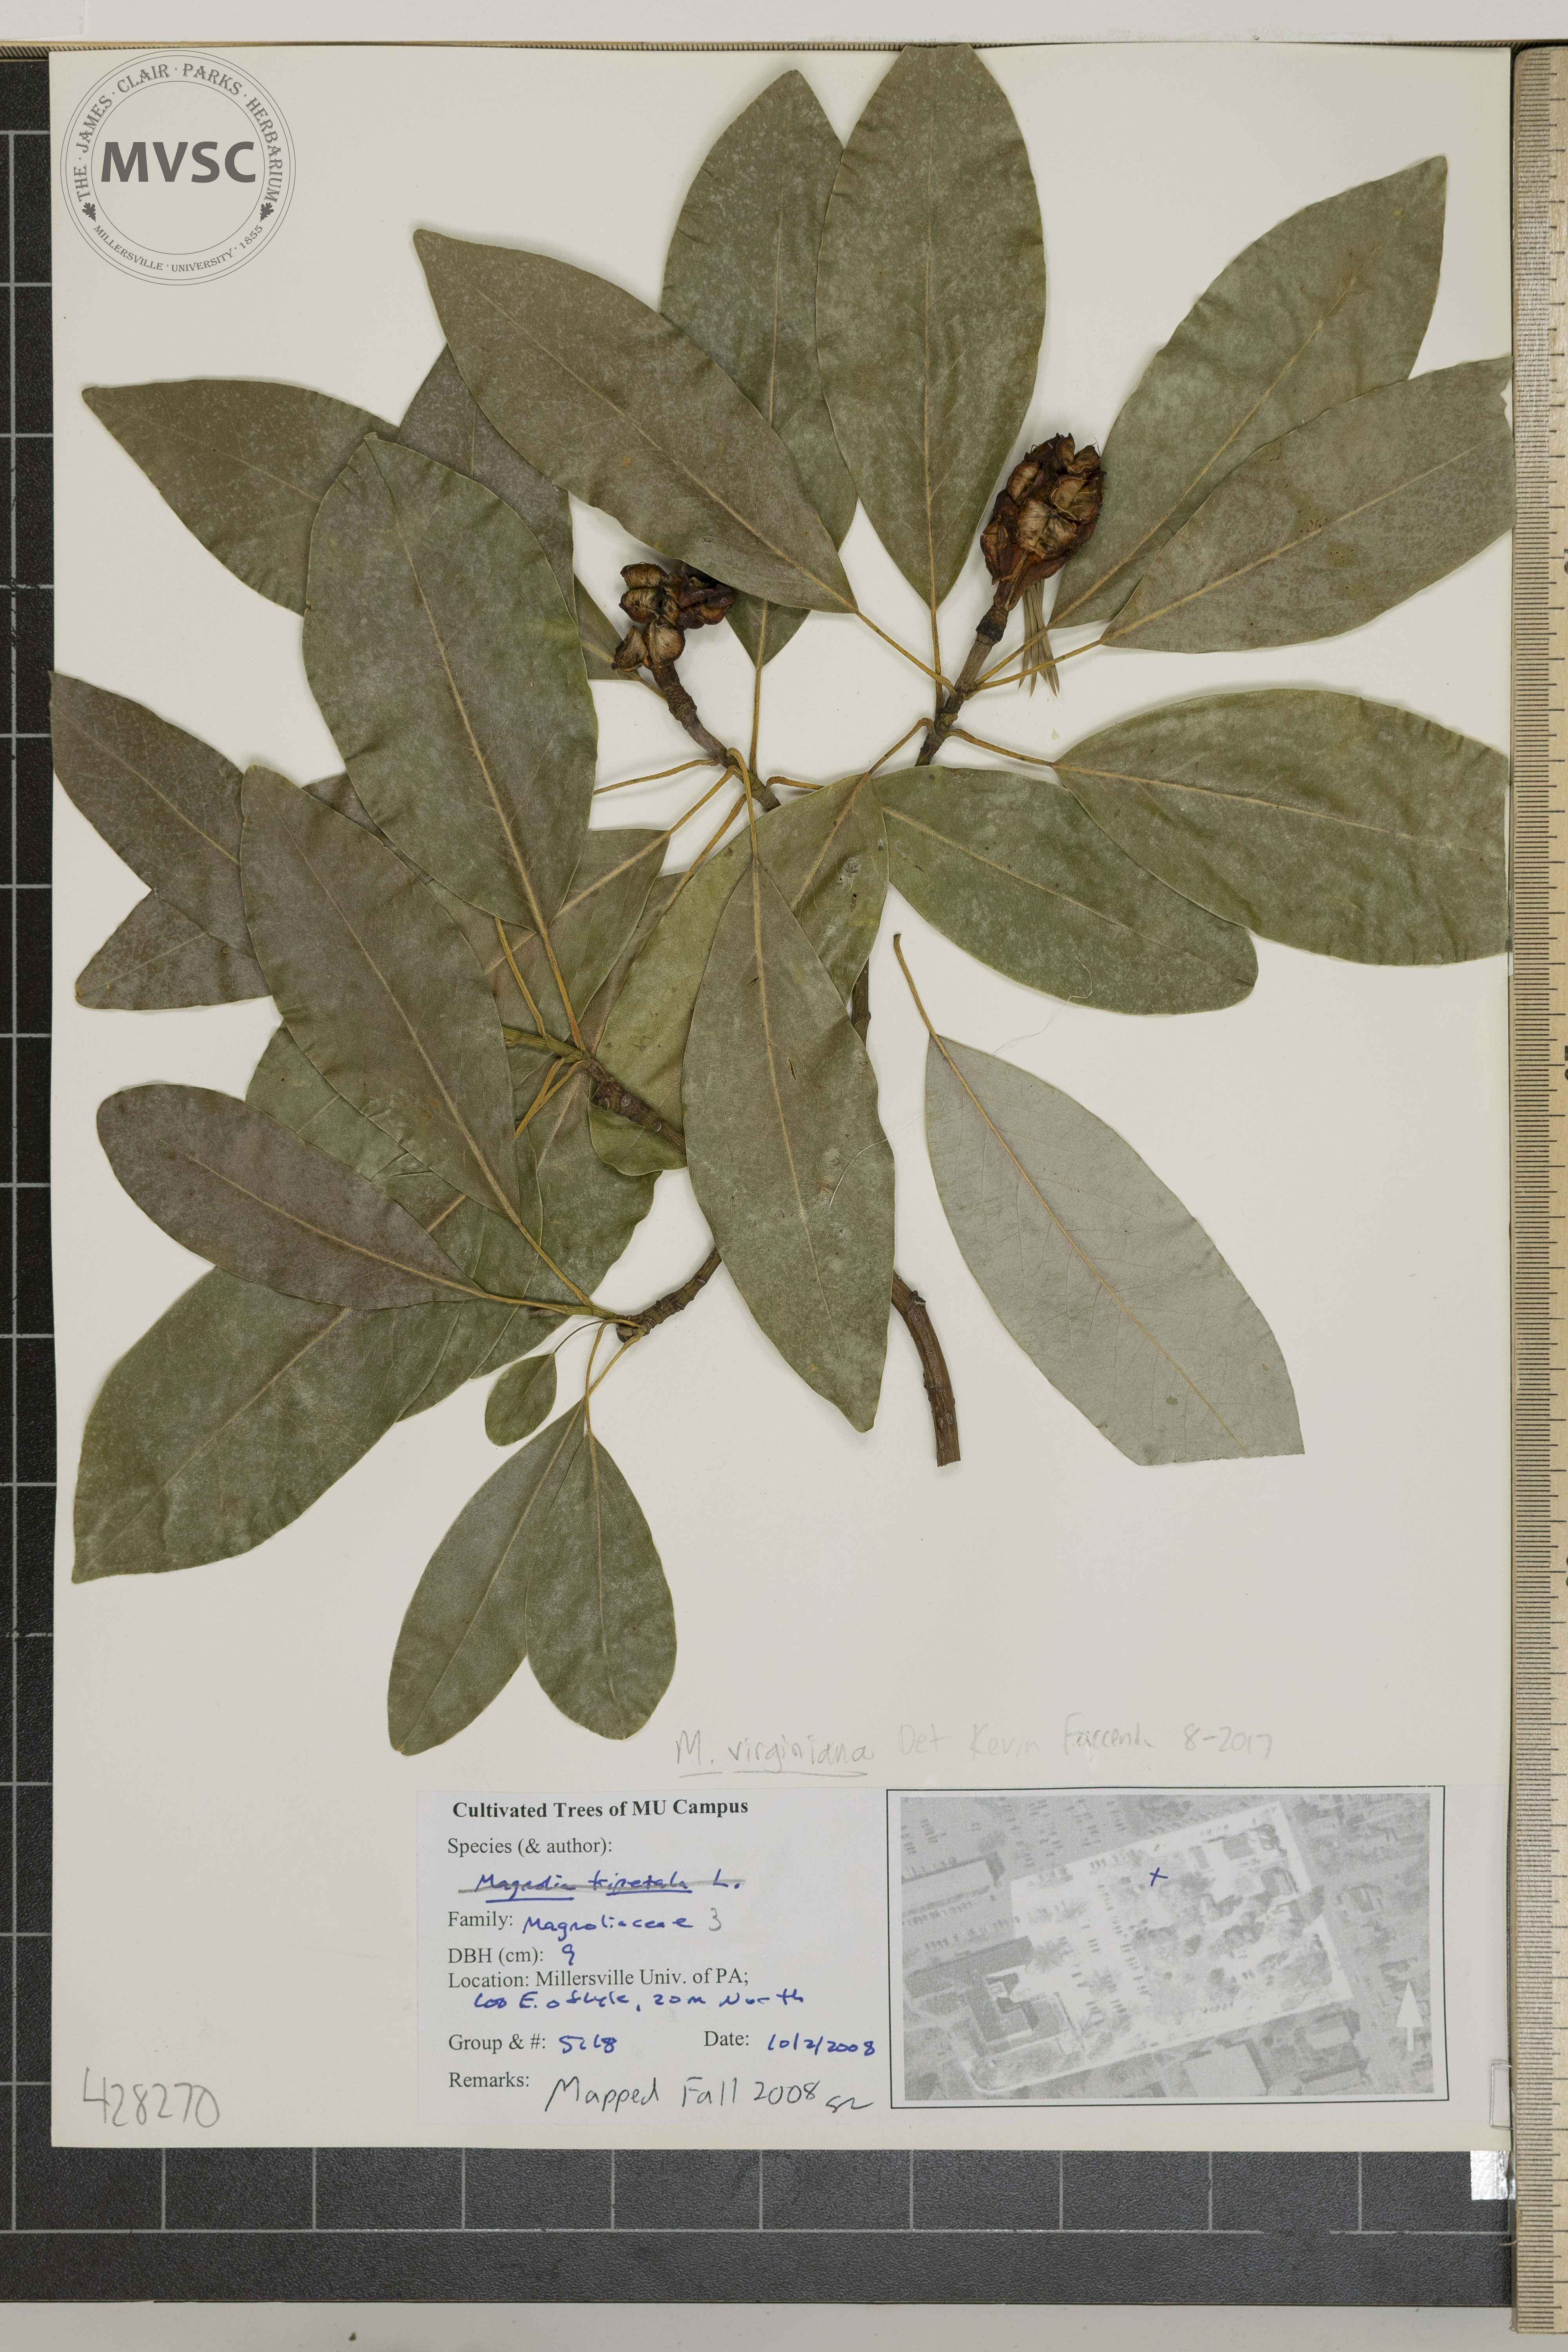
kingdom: Plantae
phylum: Tracheophyta
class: Magnoliopsida
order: Magnoliales
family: Magnoliaceae
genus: Magnolia
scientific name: Magnolia virginiana
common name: Swamp bay
